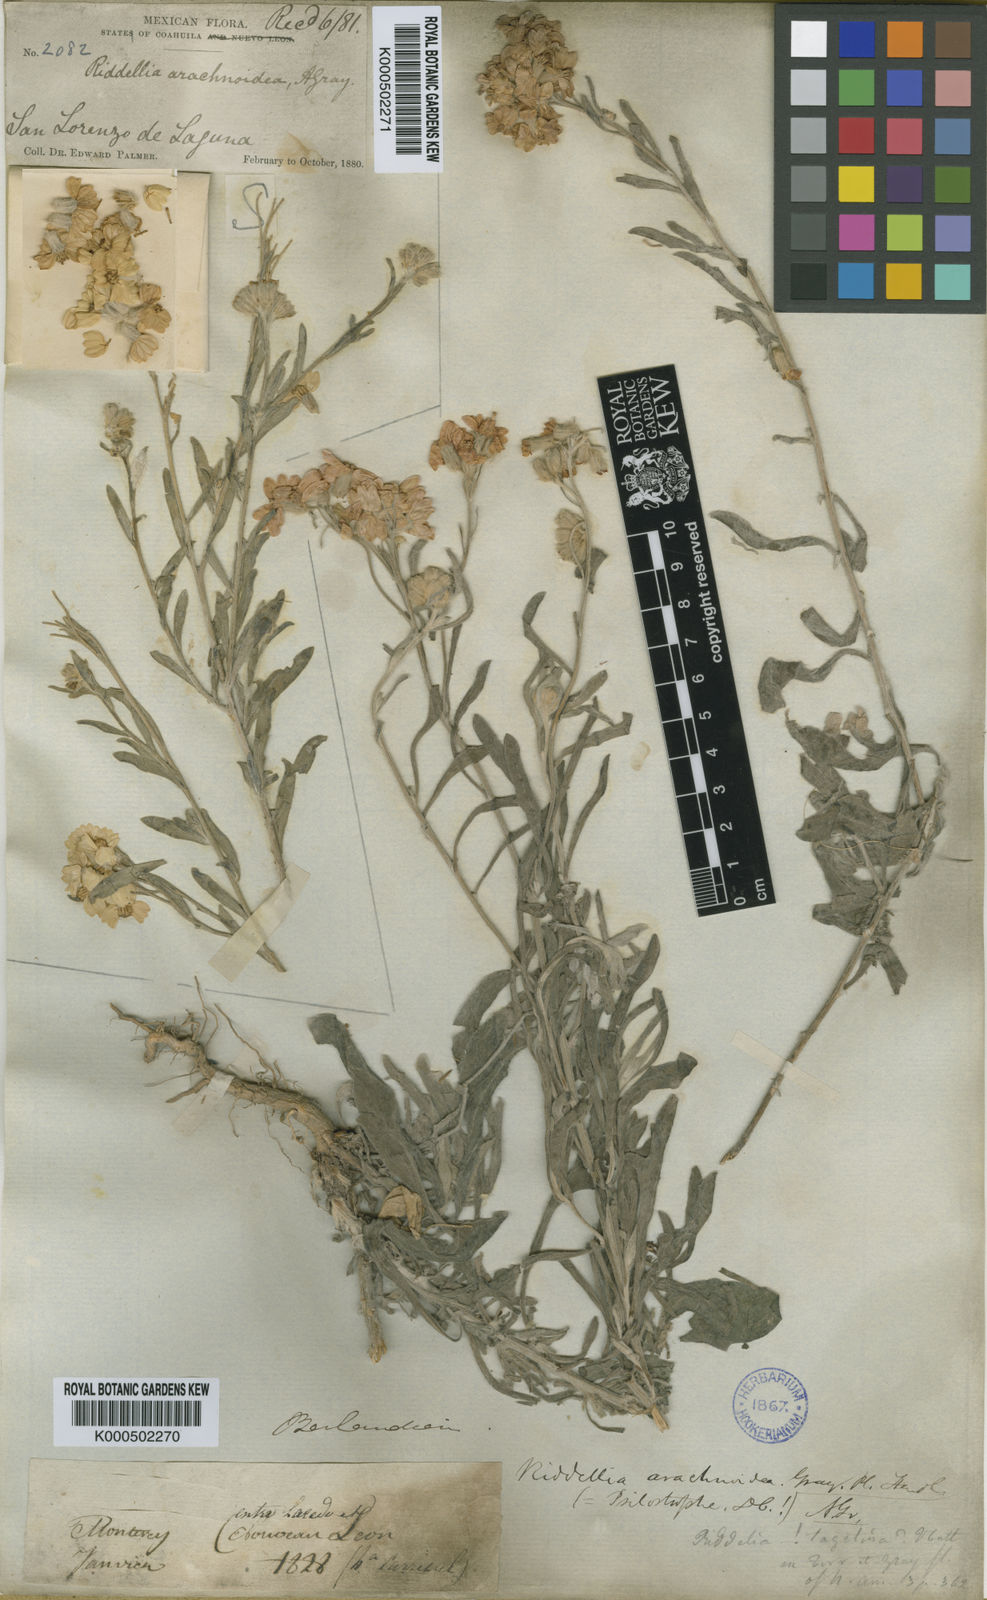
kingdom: Plantae
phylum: Tracheophyta
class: Magnoliopsida
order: Asterales
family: Asteraceae
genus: Psilostrophe
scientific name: Psilostrophe
